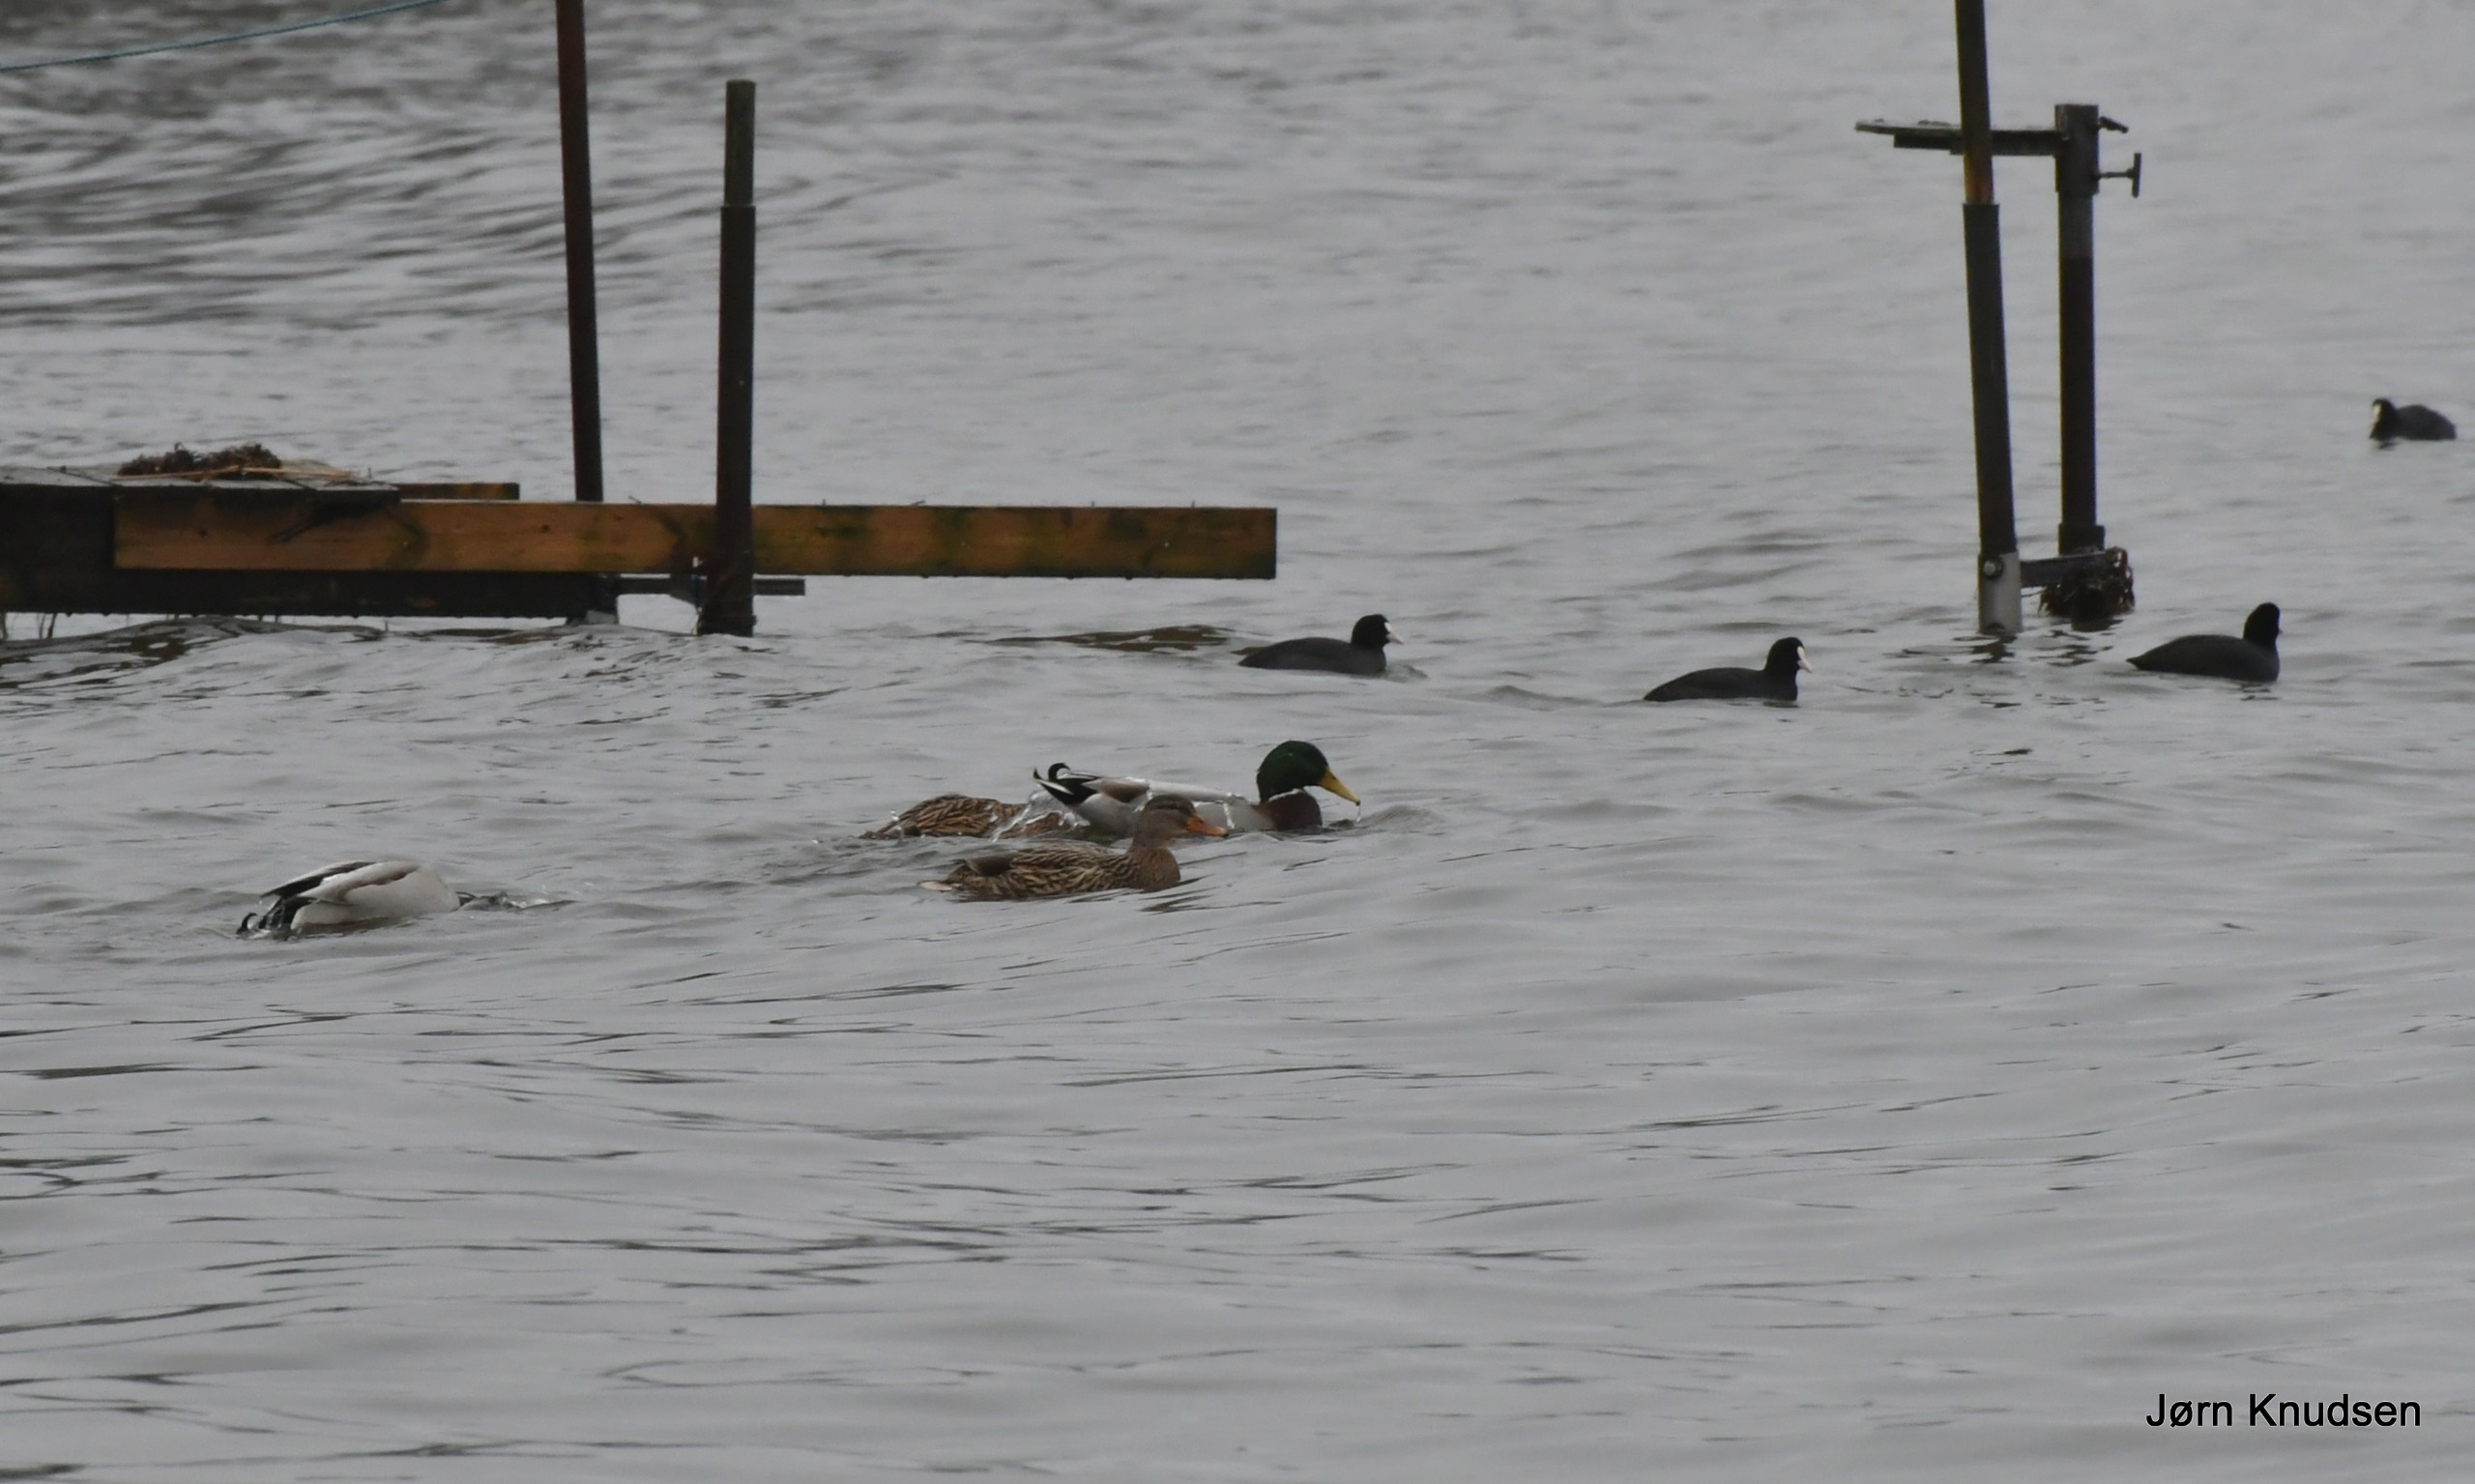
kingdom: Animalia
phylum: Chordata
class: Aves
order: Anseriformes
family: Anatidae
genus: Anas
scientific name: Anas platyrhynchos
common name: Gråand
